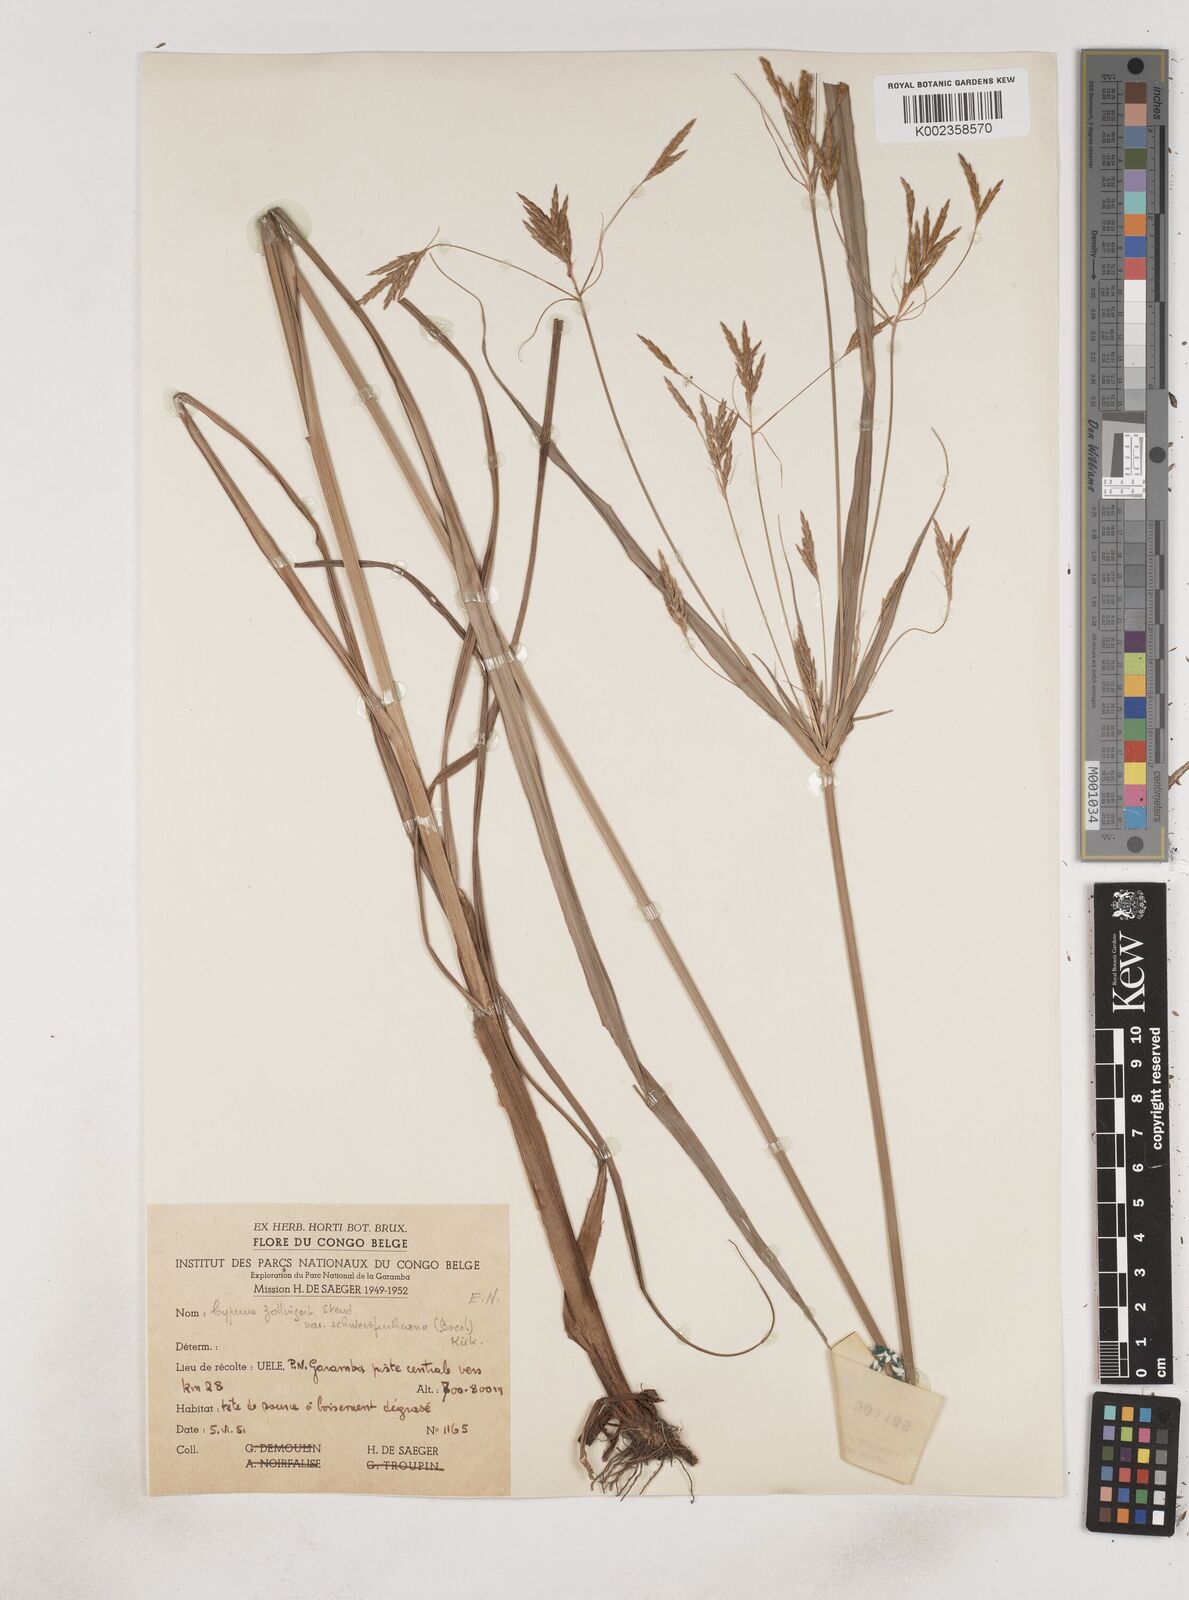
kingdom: Plantae
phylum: Tracheophyta
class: Liliopsida
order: Poales
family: Cyperaceae
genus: Cyperus
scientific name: Cyperus tenuiculmis
